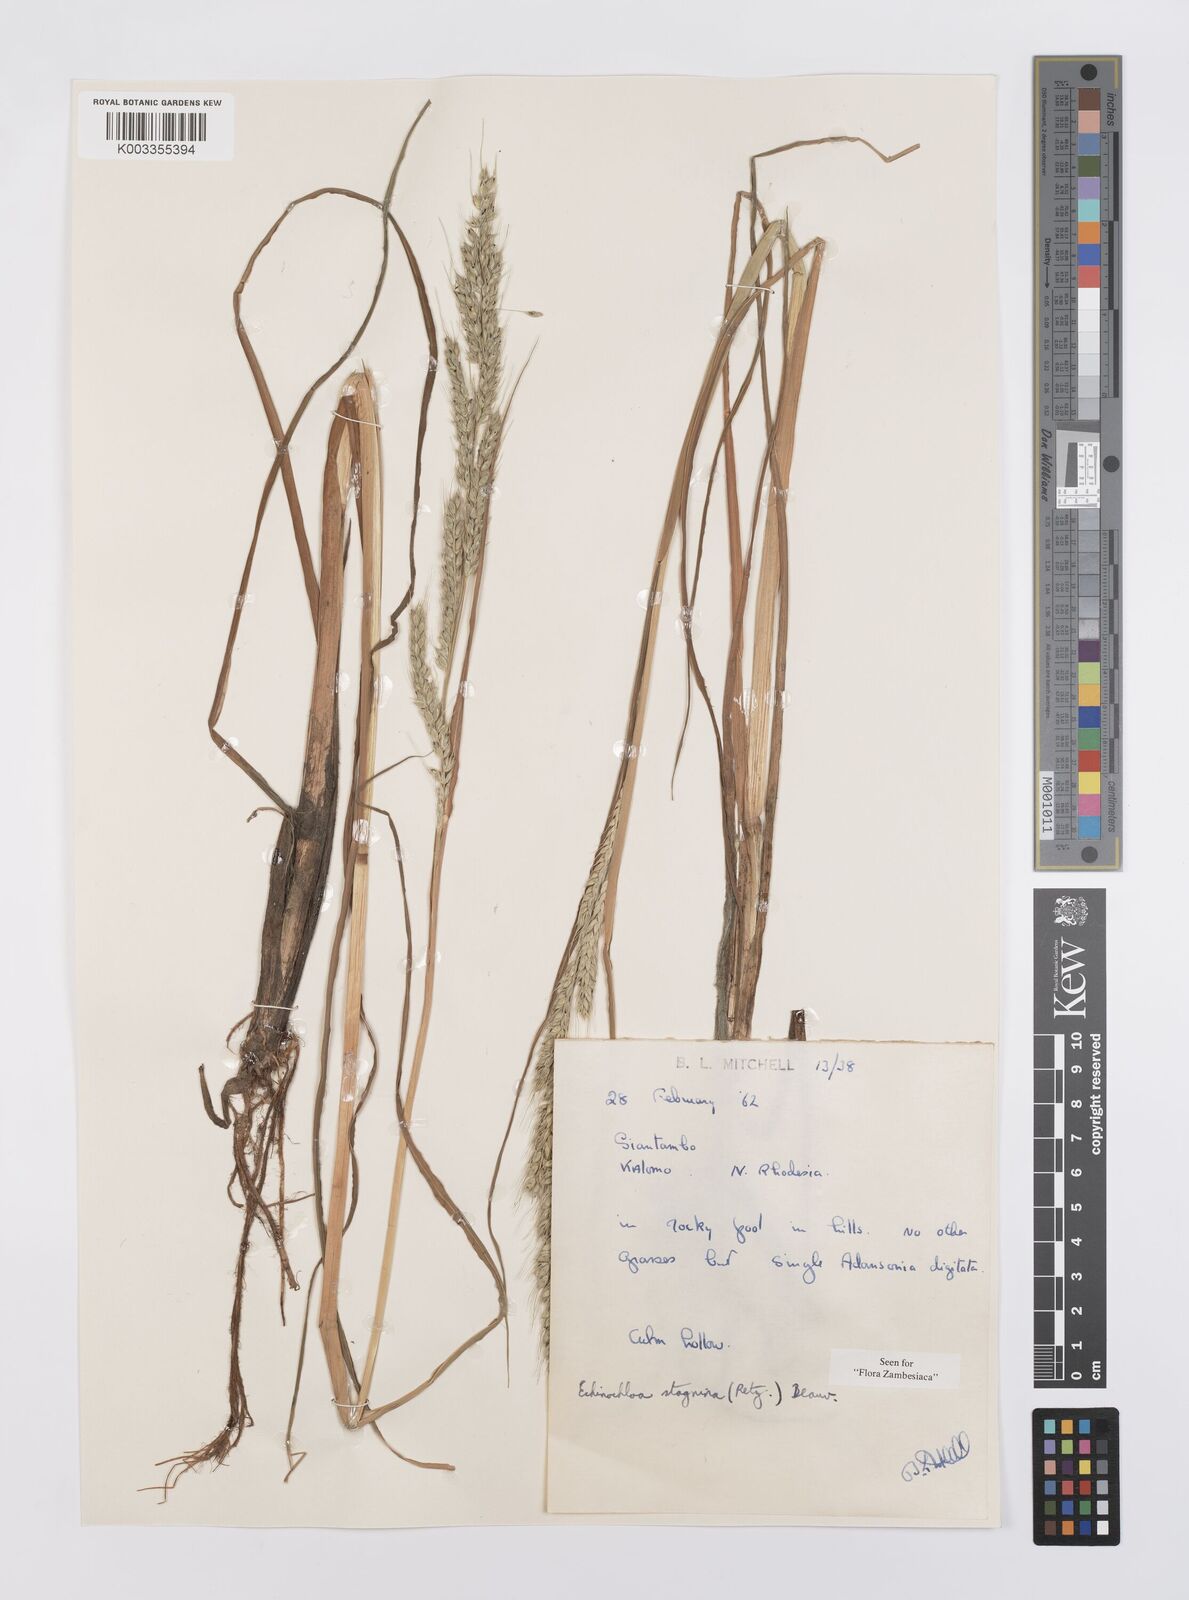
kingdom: Plantae
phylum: Tracheophyta
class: Liliopsida
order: Poales
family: Poaceae
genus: Echinochloa
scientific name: Echinochloa stagnina
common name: Burgu grass
